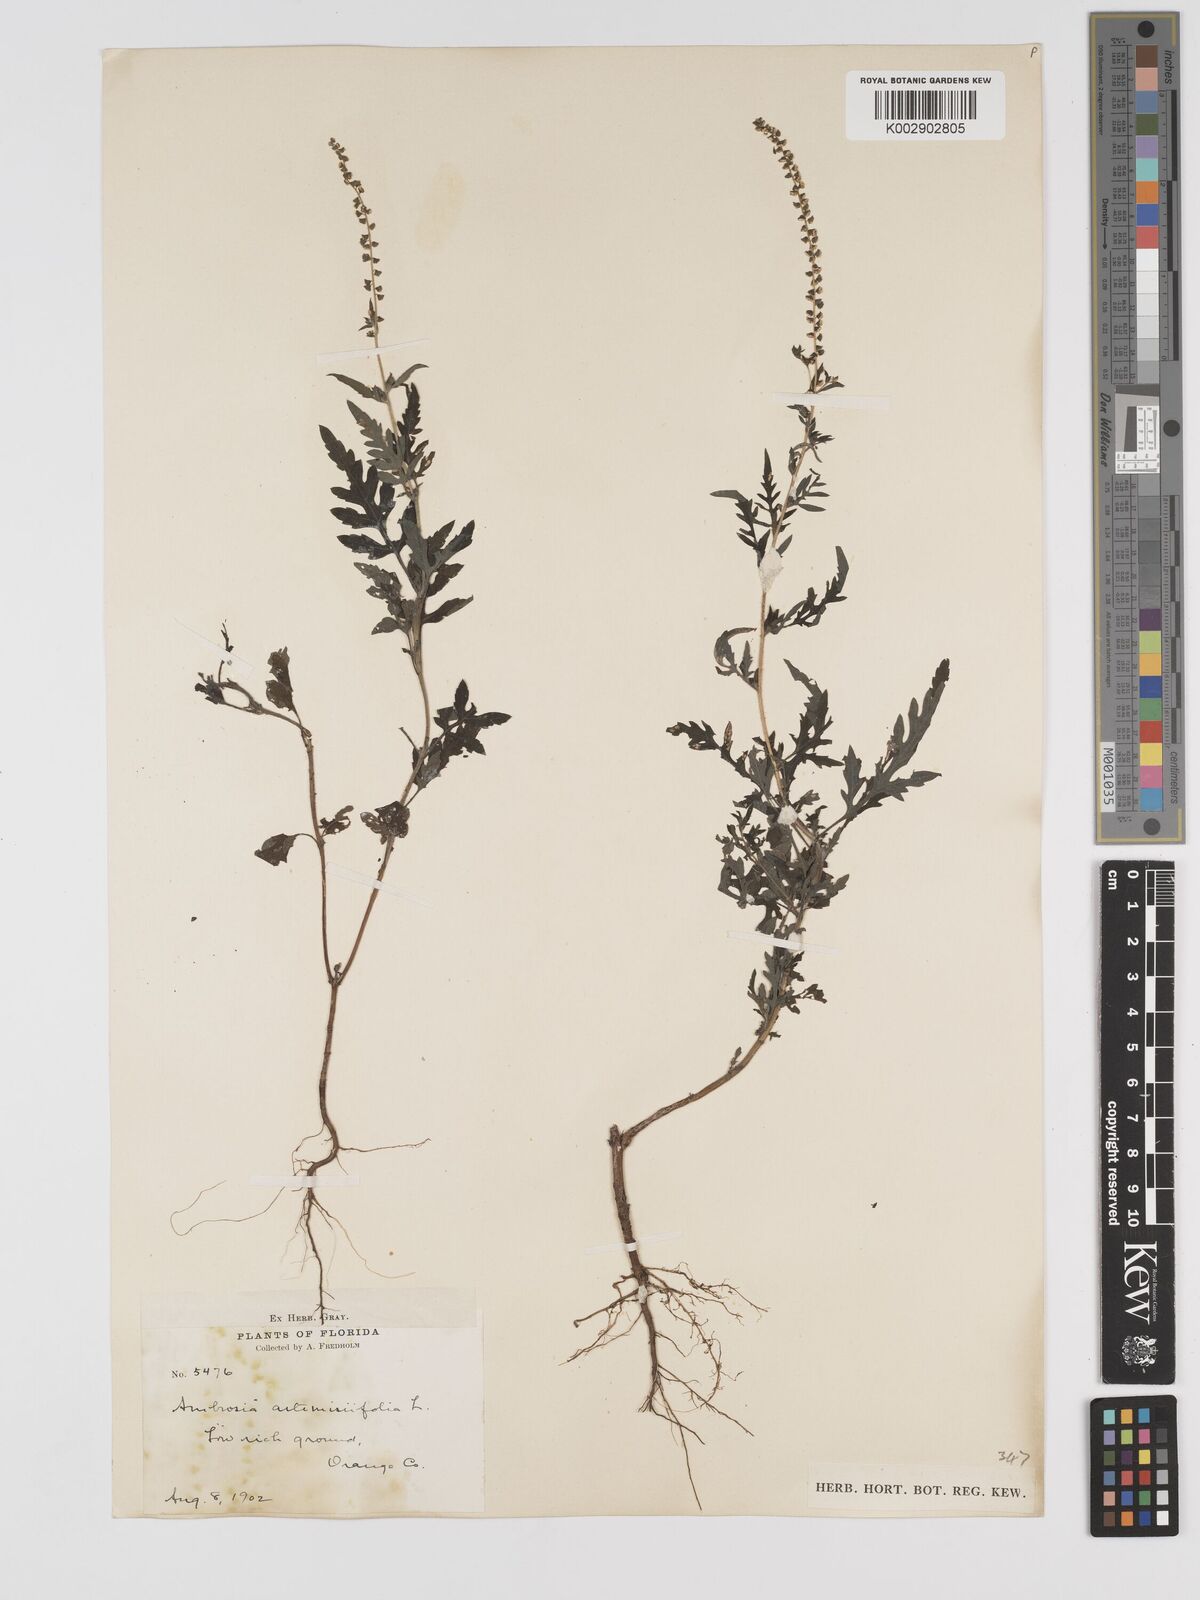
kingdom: Plantae
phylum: Tracheophyta
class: Magnoliopsida
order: Asterales
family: Asteraceae
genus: Ambrosia
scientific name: Ambrosia artemisiifolia
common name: Annual ragweed
